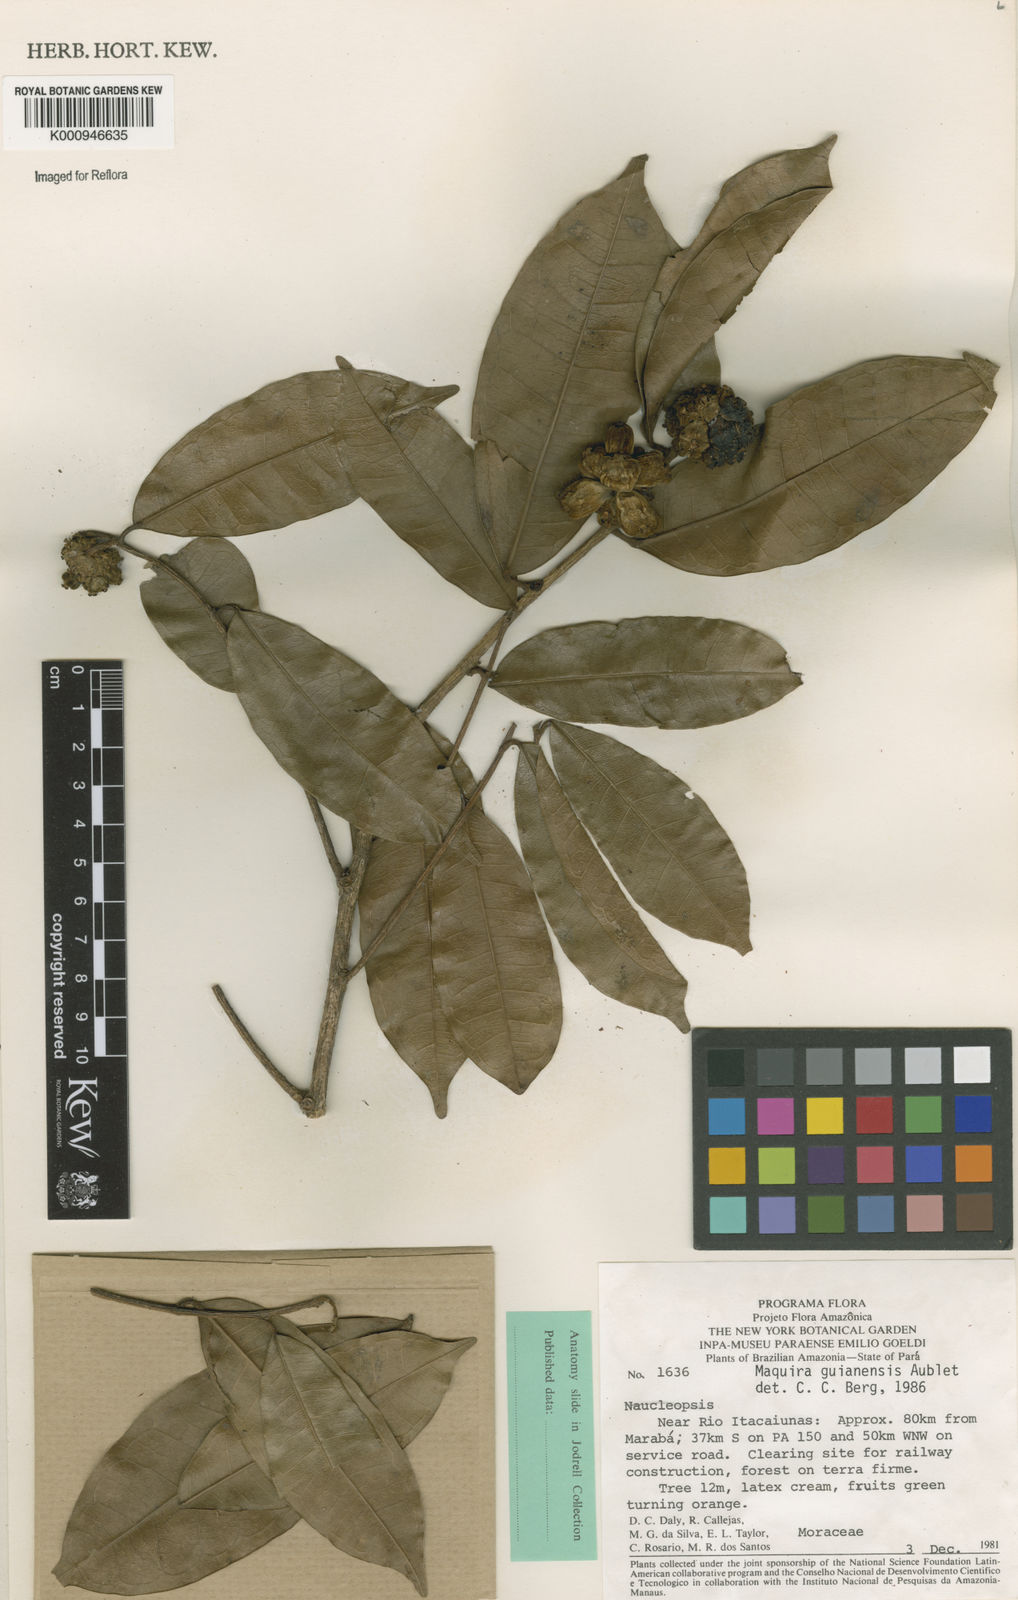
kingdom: Plantae
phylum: Tracheophyta
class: Magnoliopsida
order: Rosales
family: Moraceae
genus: Maquira
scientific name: Maquira guianensis
